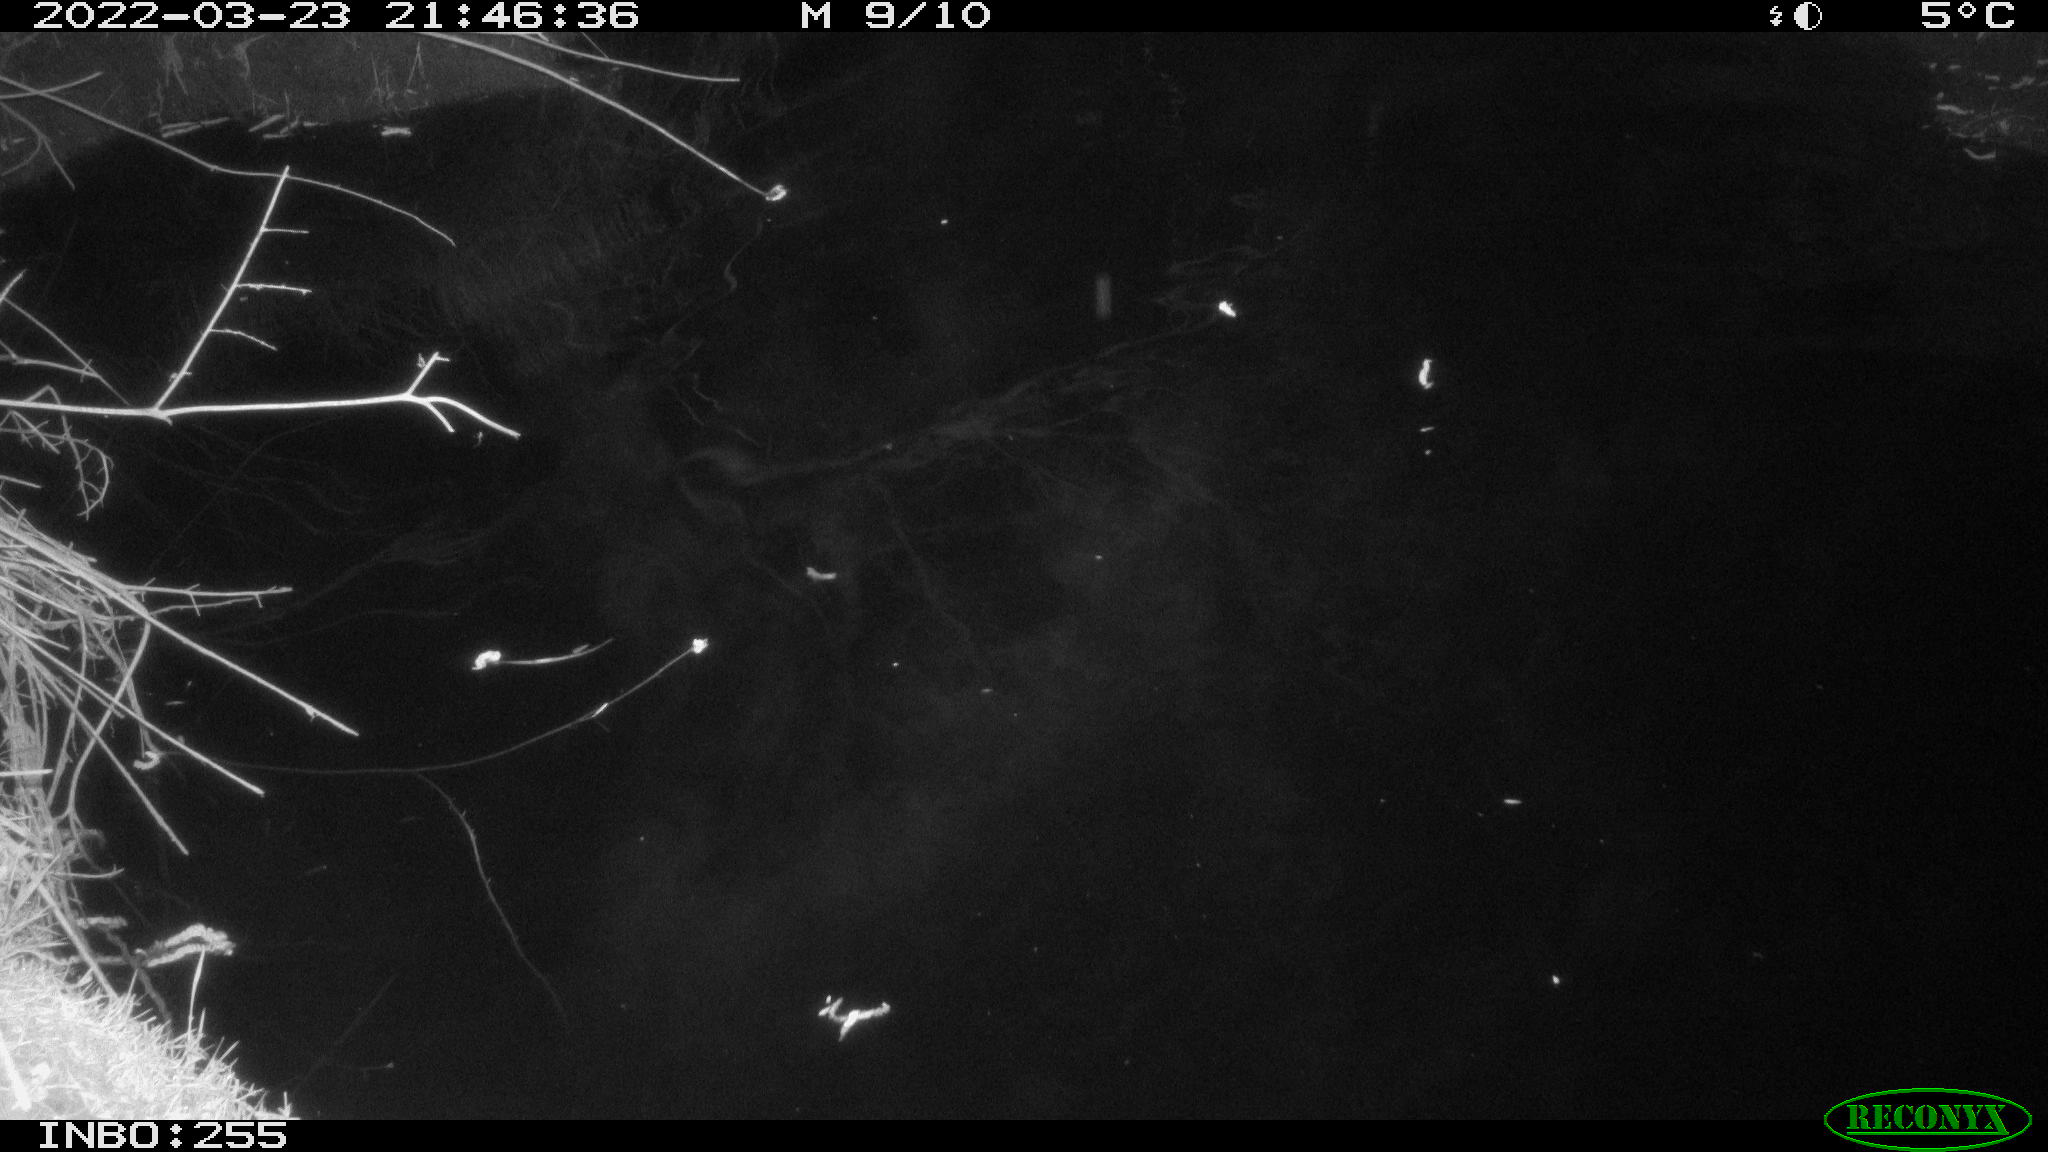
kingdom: Animalia
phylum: Chordata
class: Aves
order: Anseriformes
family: Anatidae
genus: Anas
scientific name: Anas platyrhynchos
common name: Mallard
